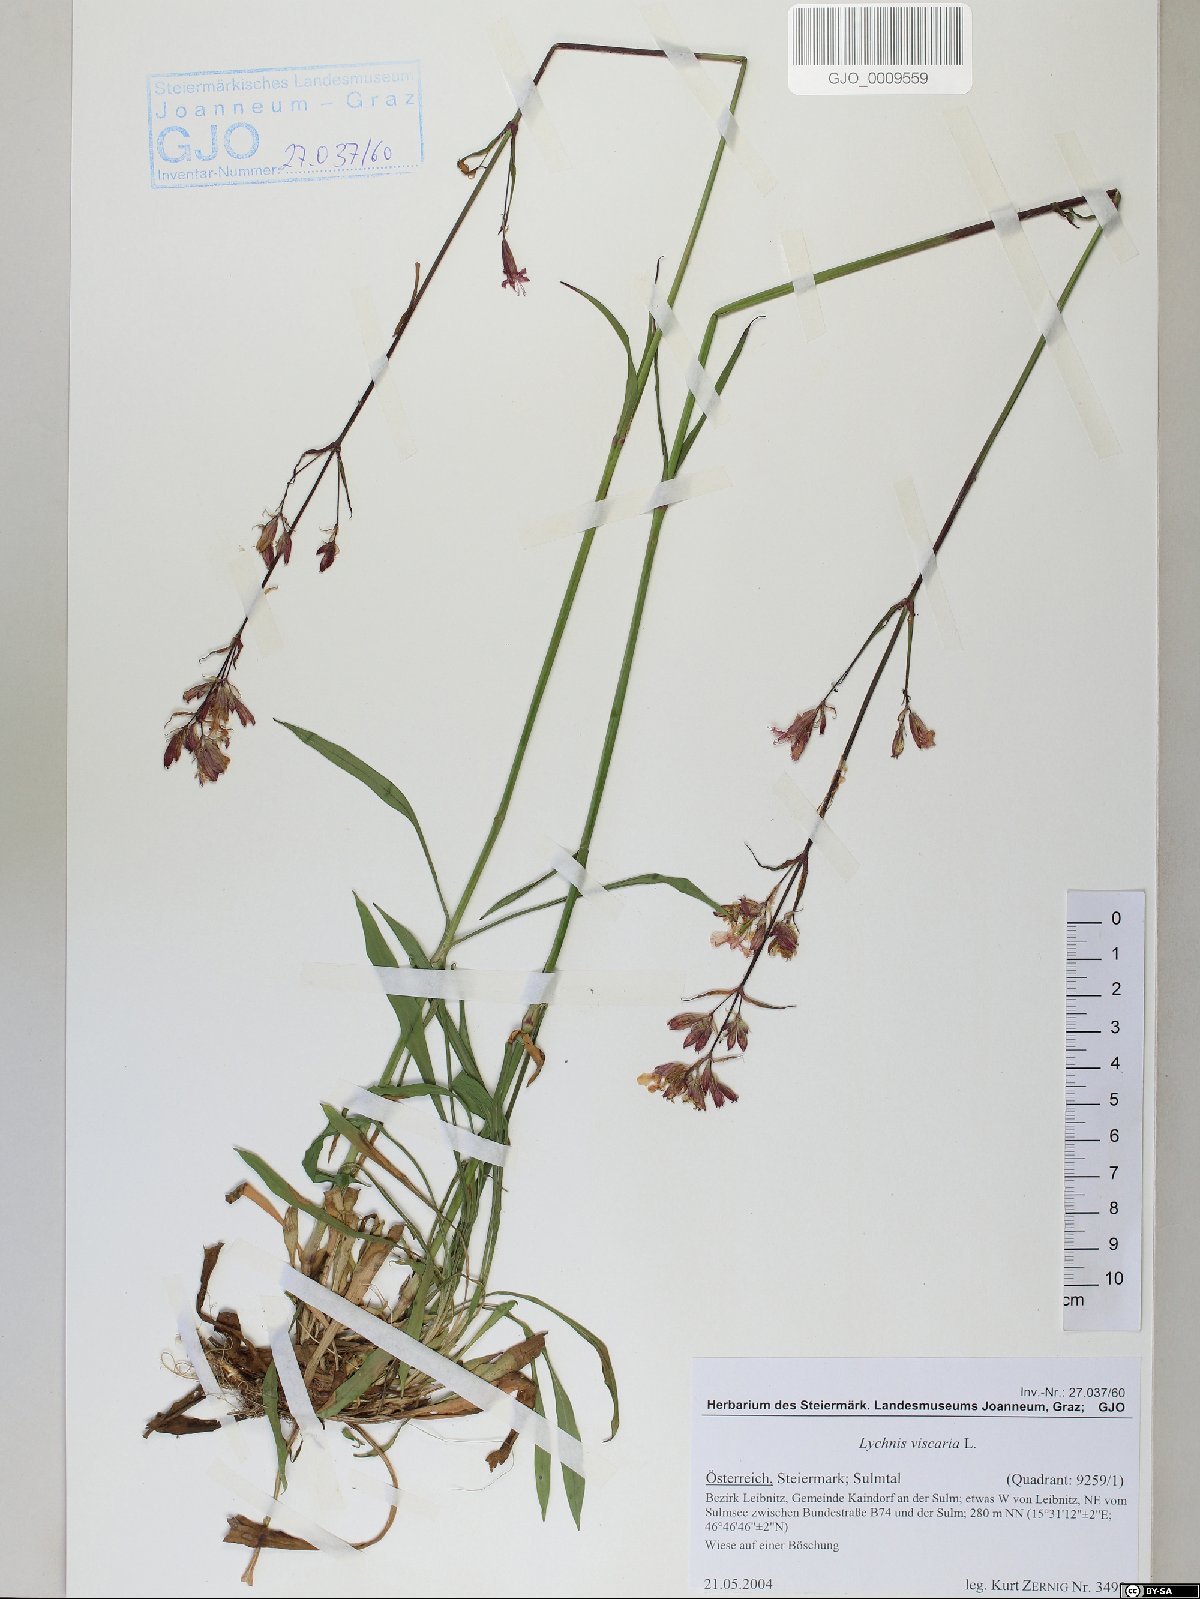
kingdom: Plantae
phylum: Tracheophyta
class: Magnoliopsida
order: Caryophyllales
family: Caryophyllaceae
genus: Viscaria
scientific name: Viscaria vulgaris
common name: Clammy campion
